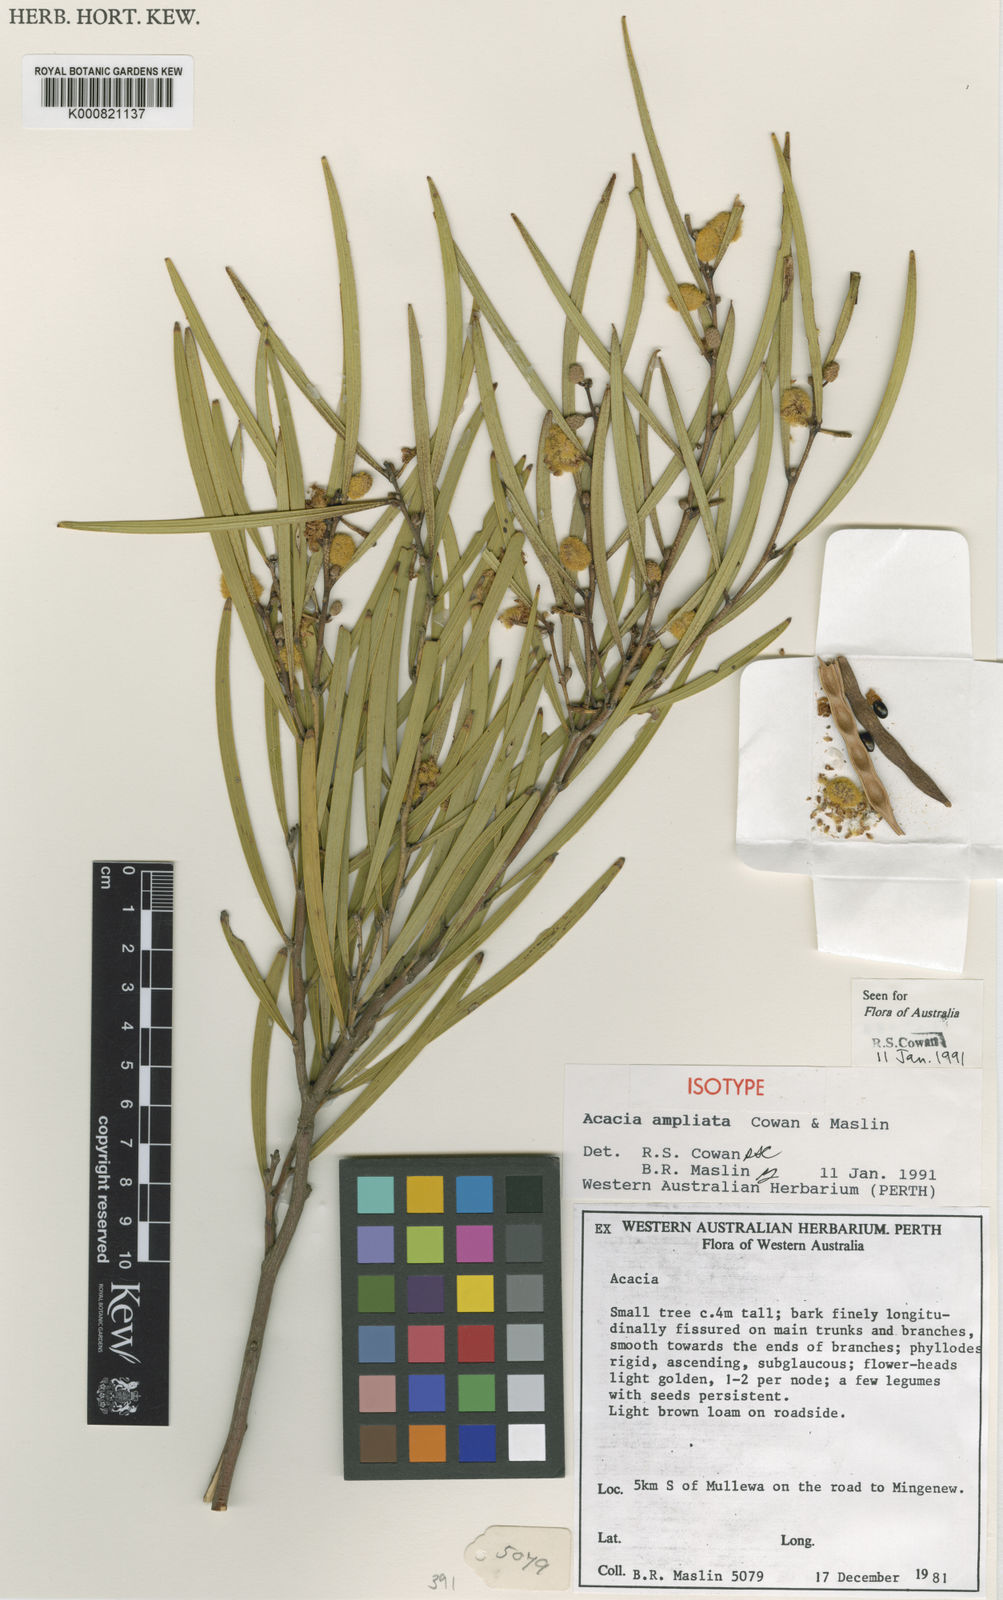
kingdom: Plantae
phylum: Tracheophyta
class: Magnoliopsida
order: Fabales
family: Fabaceae
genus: Acacia
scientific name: Acacia ampliceps
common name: Salt wattle
